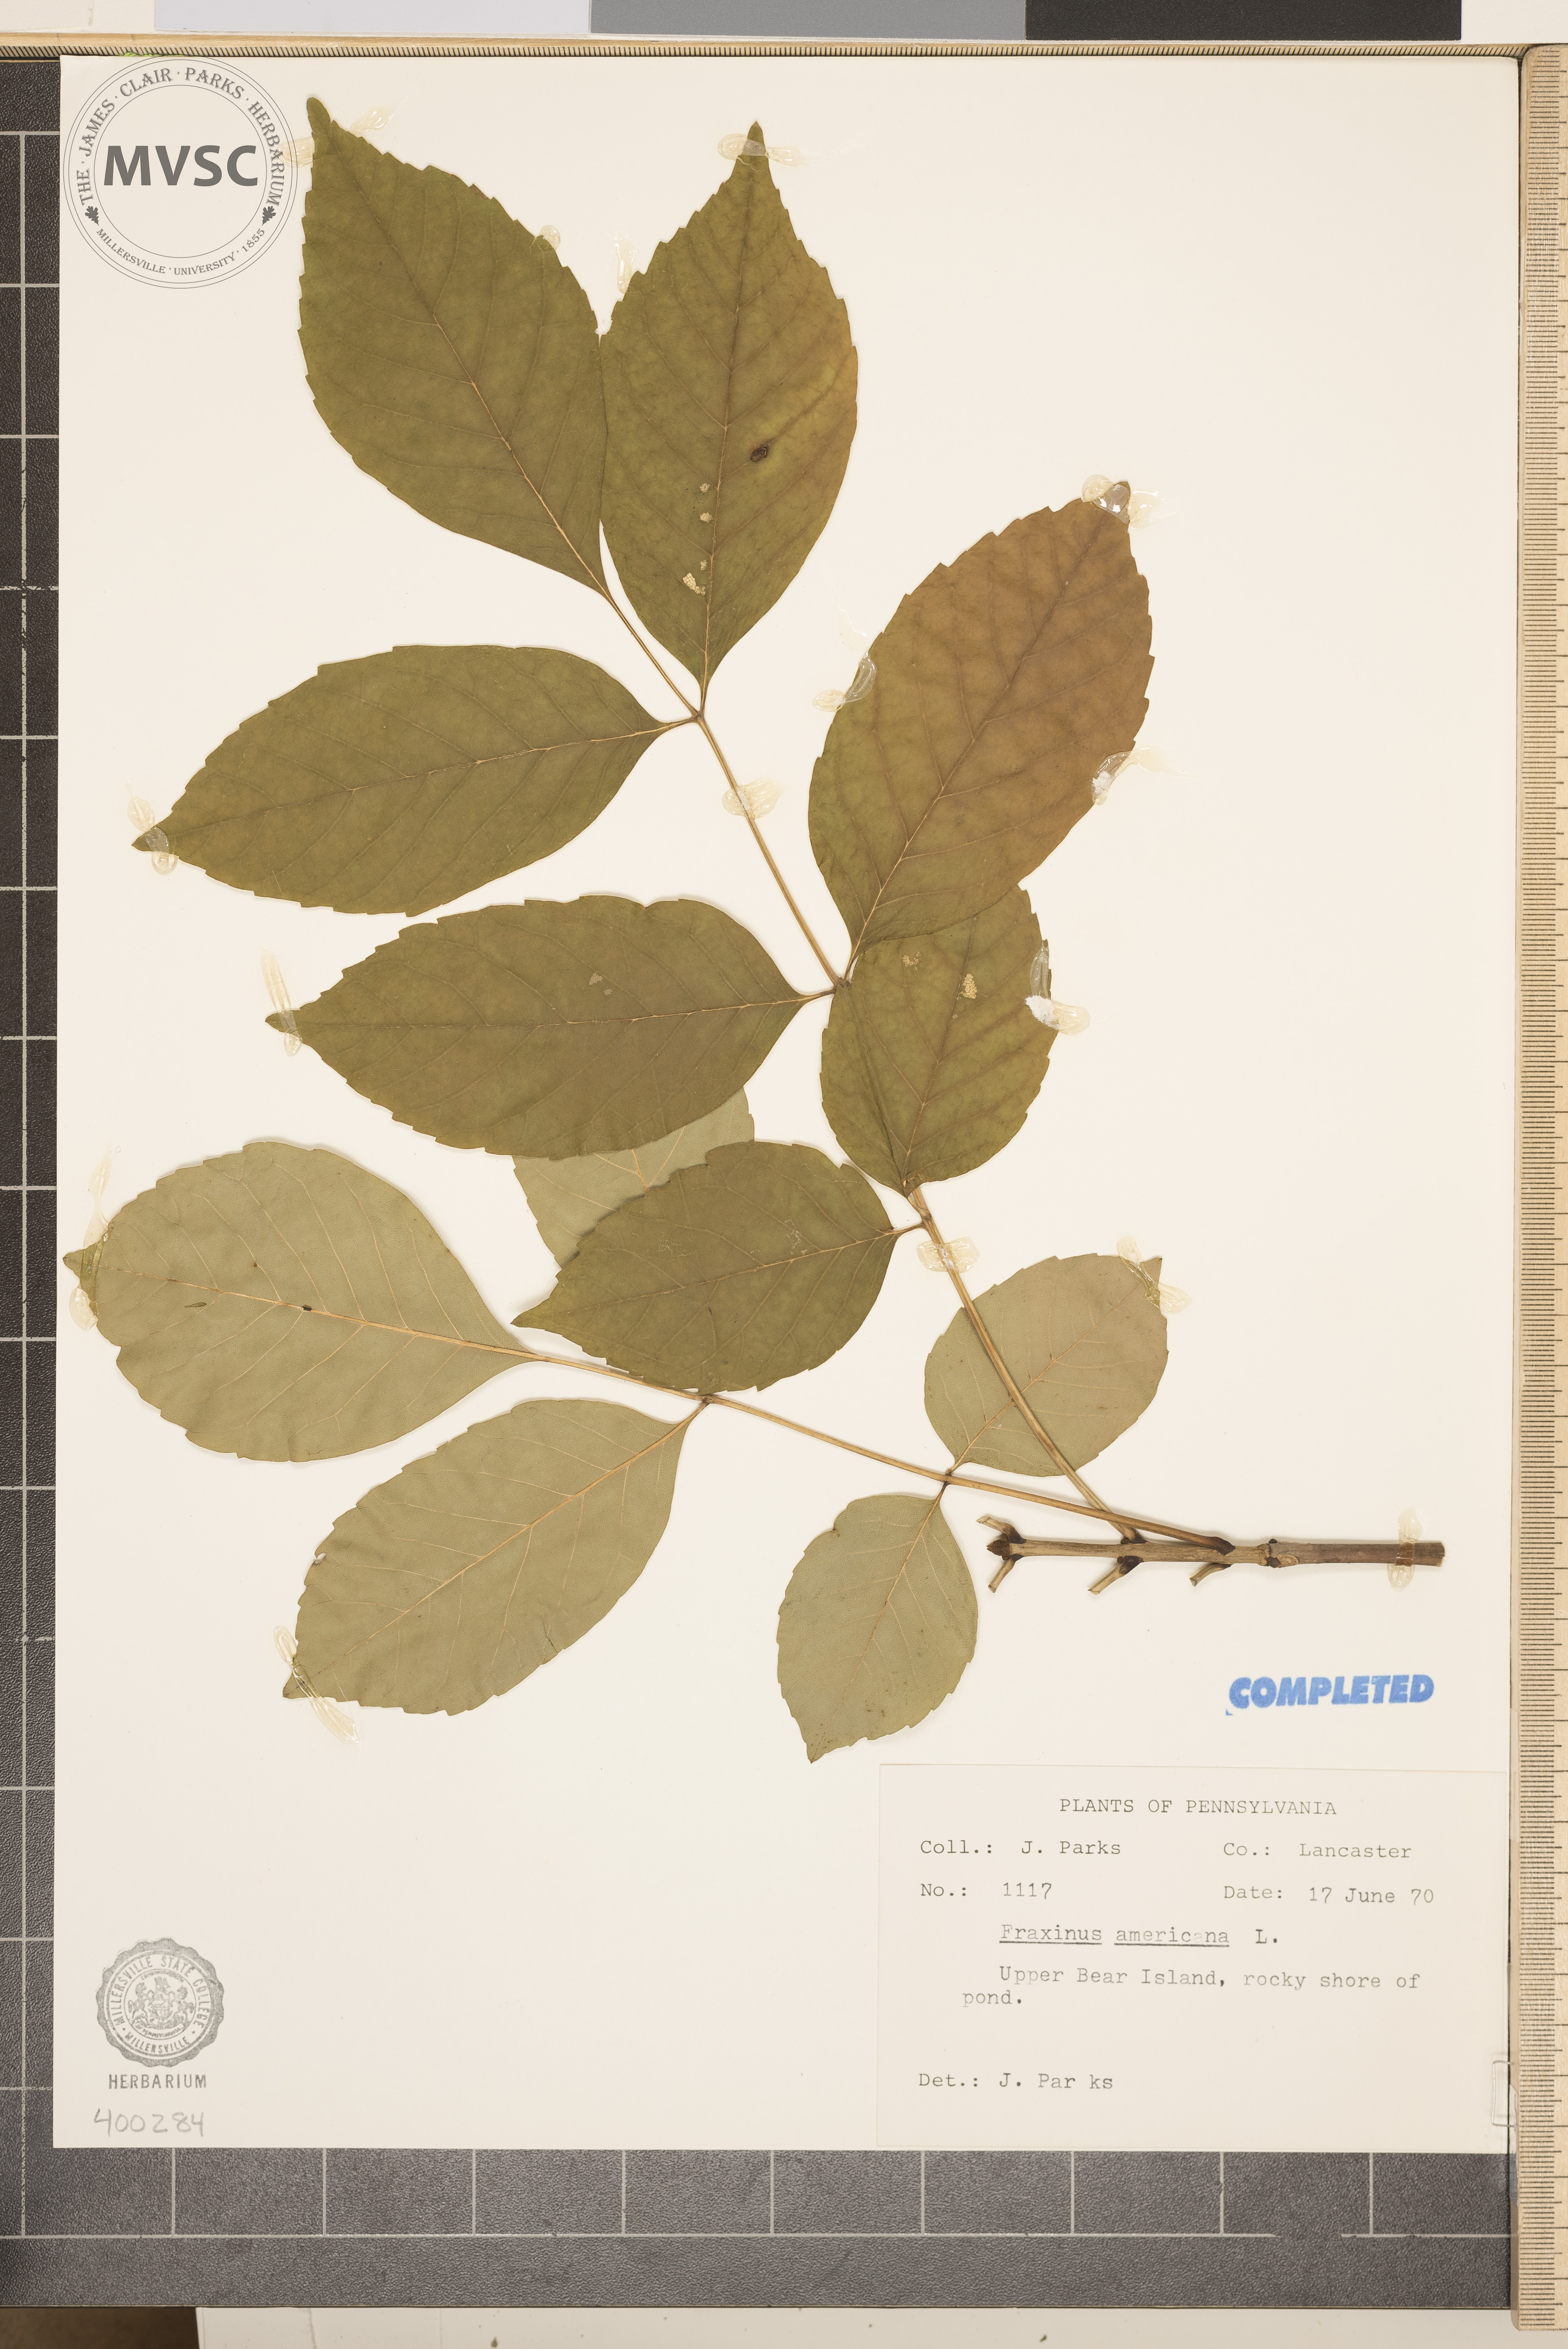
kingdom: Plantae
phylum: Tracheophyta
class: Magnoliopsida
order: Lamiales
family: Oleaceae
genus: Fraxinus
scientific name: Fraxinus americana
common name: ash
